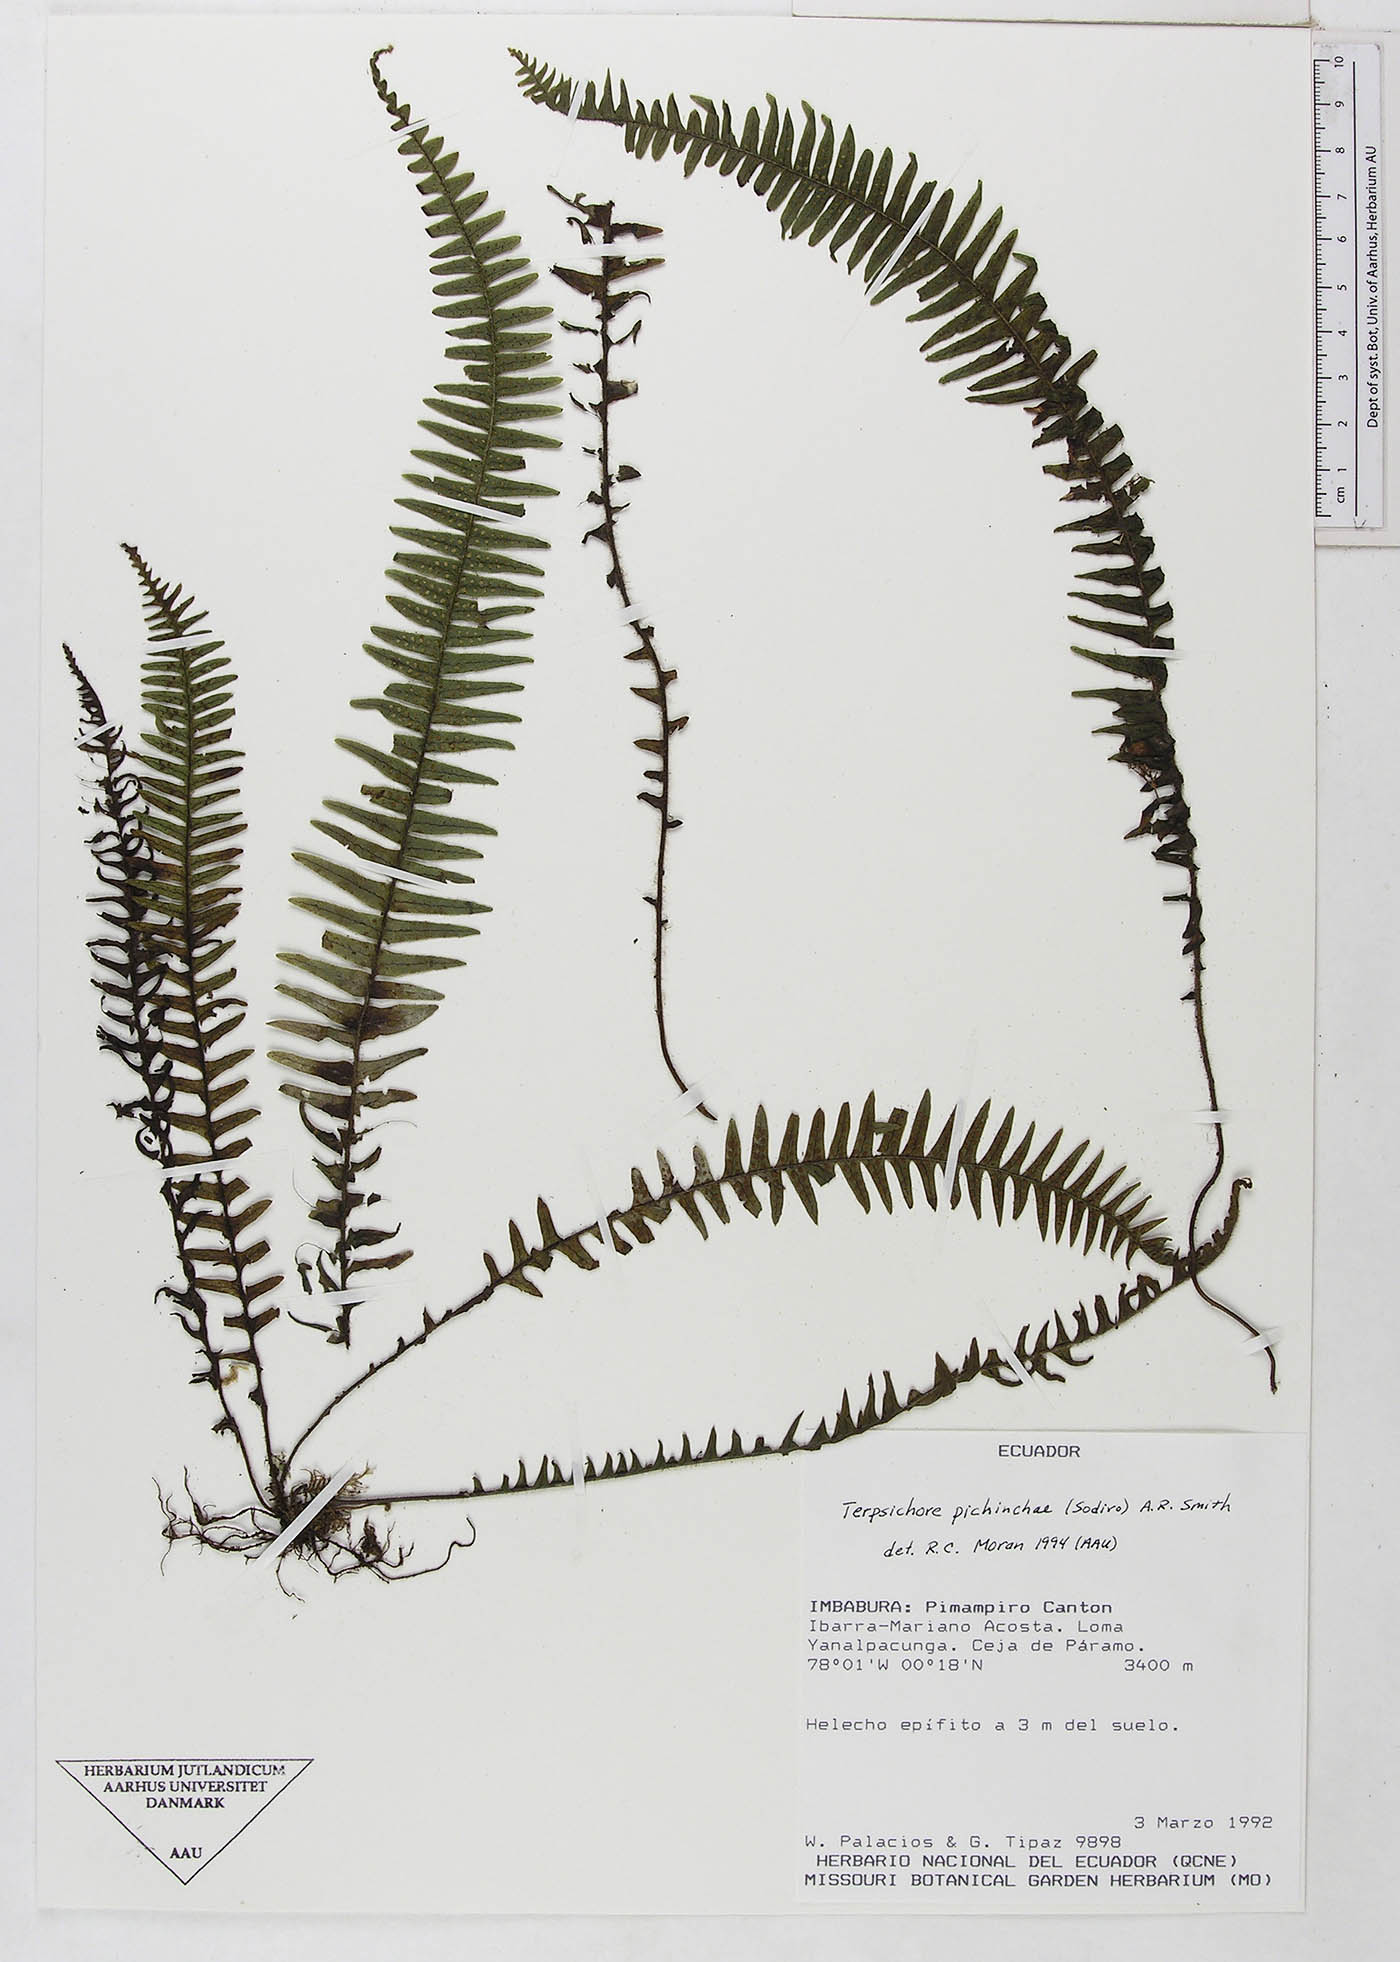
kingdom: Plantae
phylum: Tracheophyta
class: Polypodiopsida
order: Polypodiales
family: Polypodiaceae
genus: Ascogrammitis
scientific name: Ascogrammitis pichinchae
